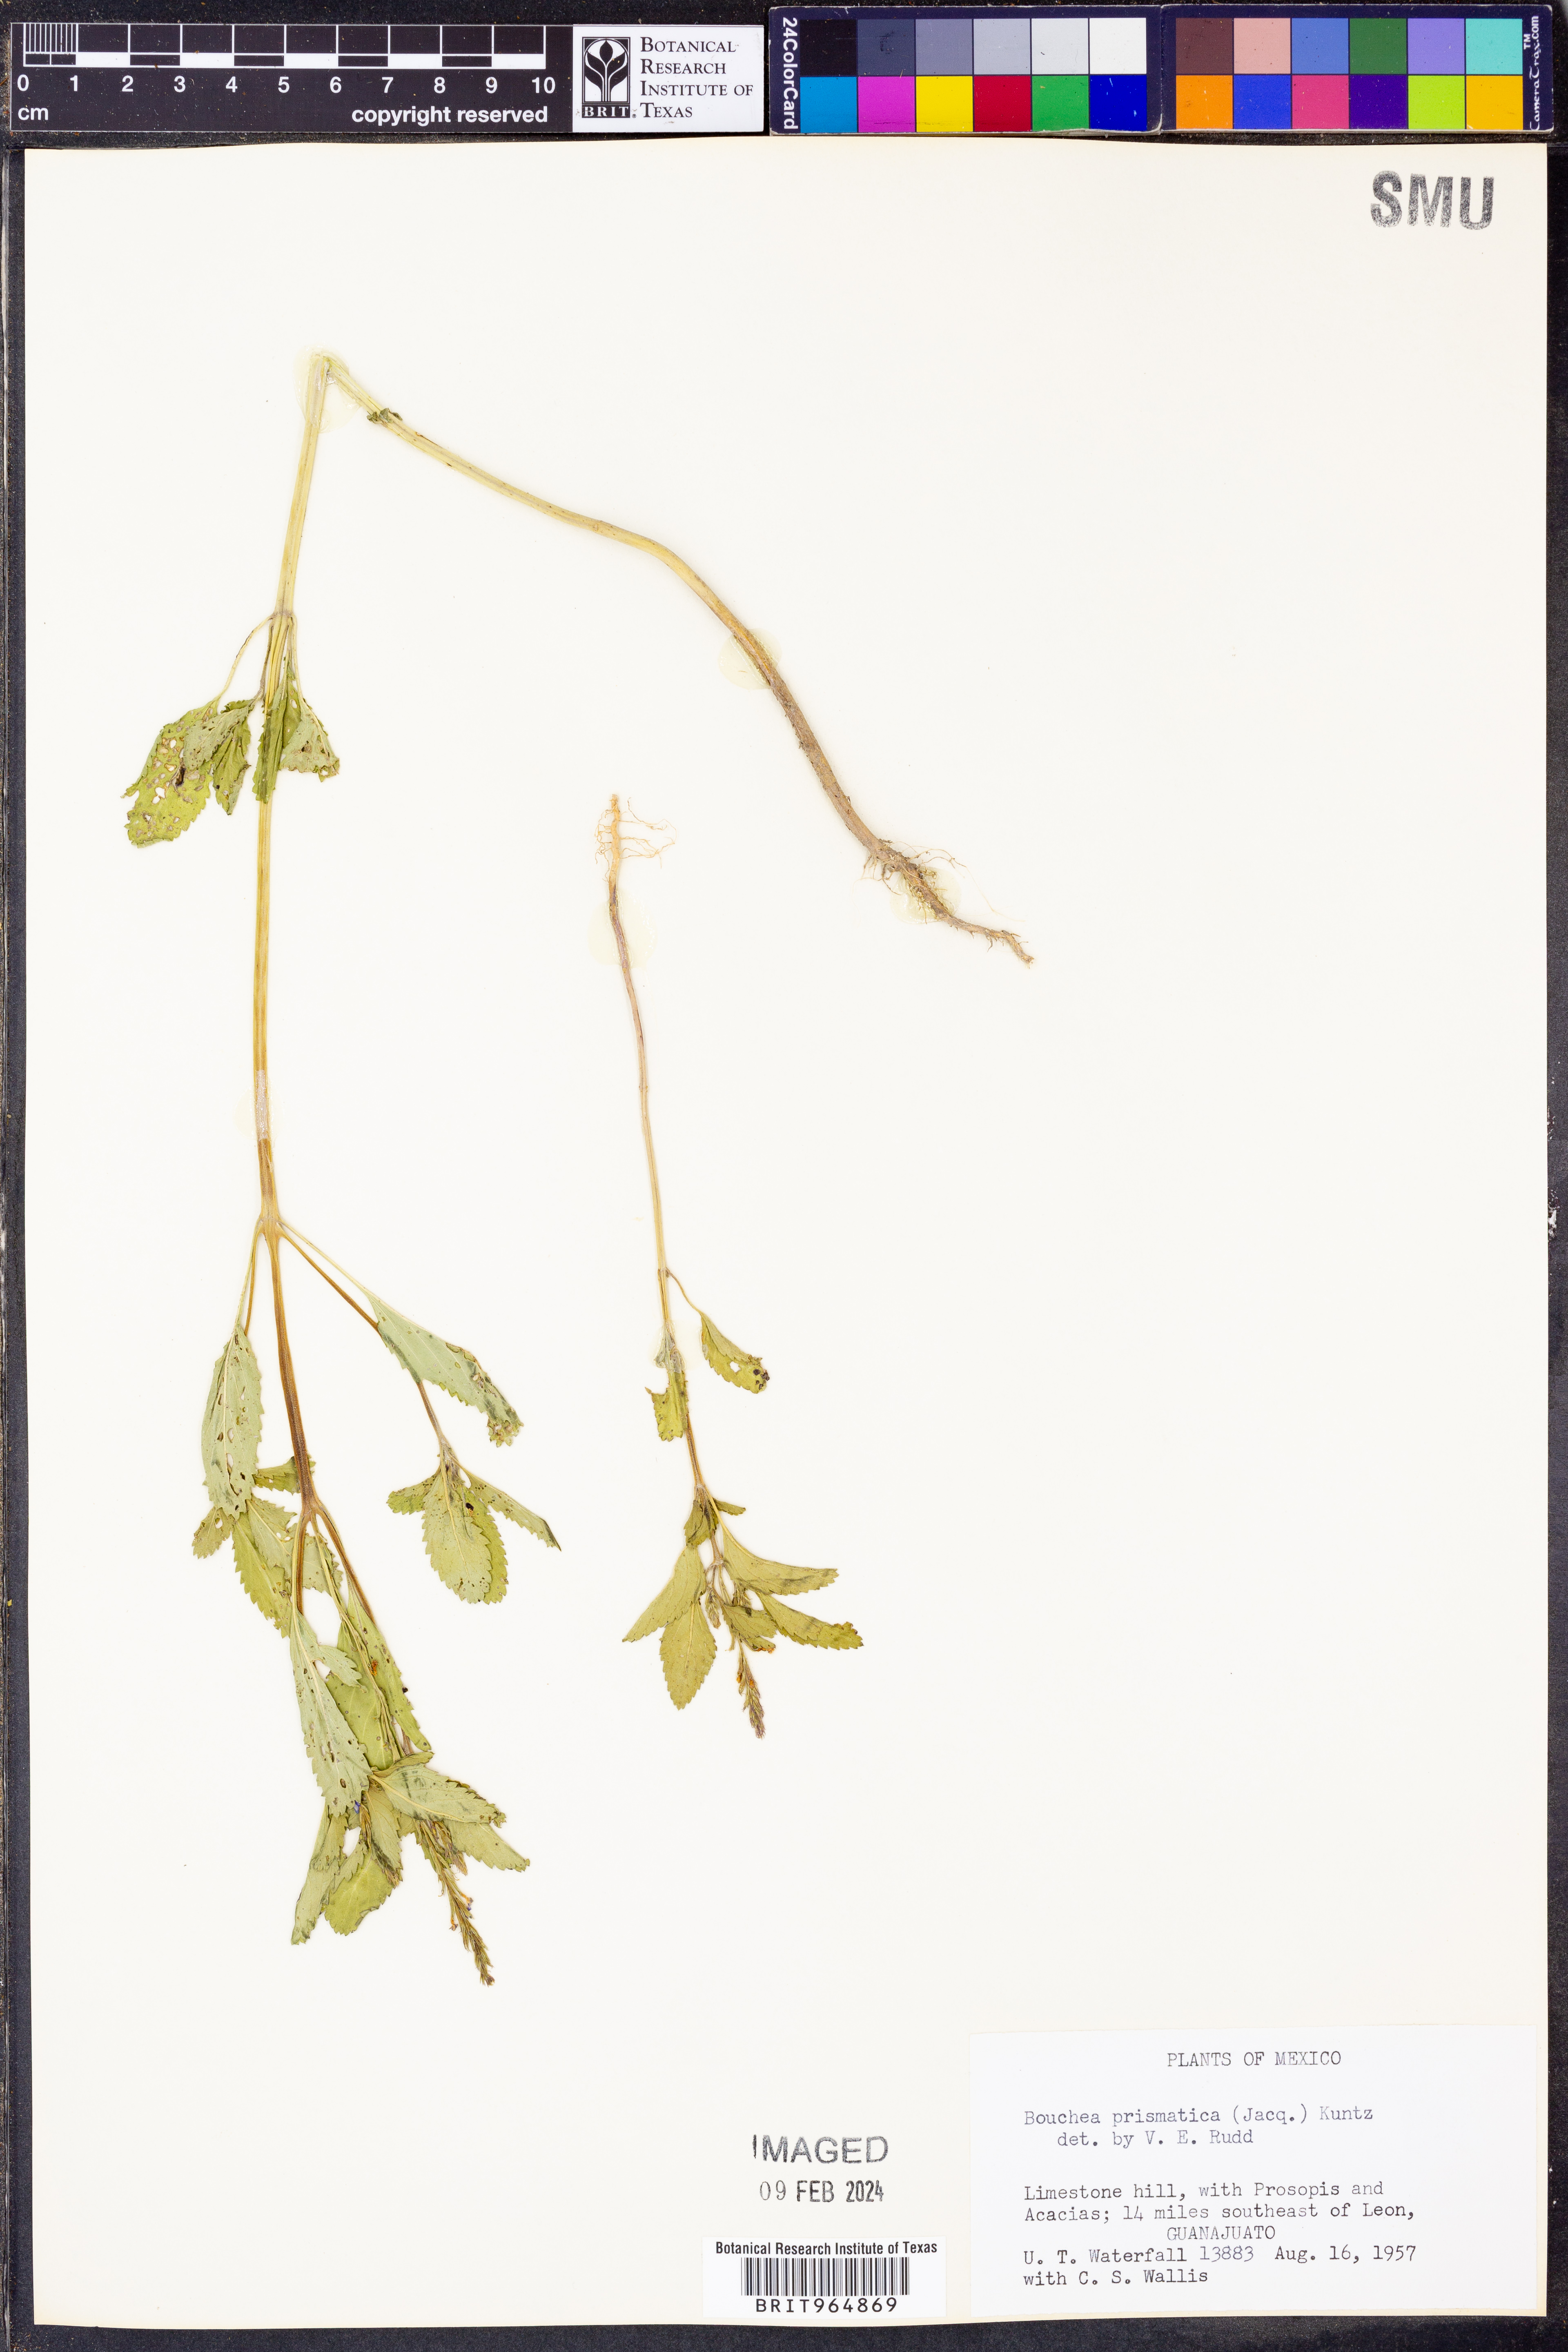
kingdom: Plantae
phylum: Tracheophyta
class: Magnoliopsida
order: Lamiales
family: Verbenaceae
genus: Bouchea
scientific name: Bouchea
